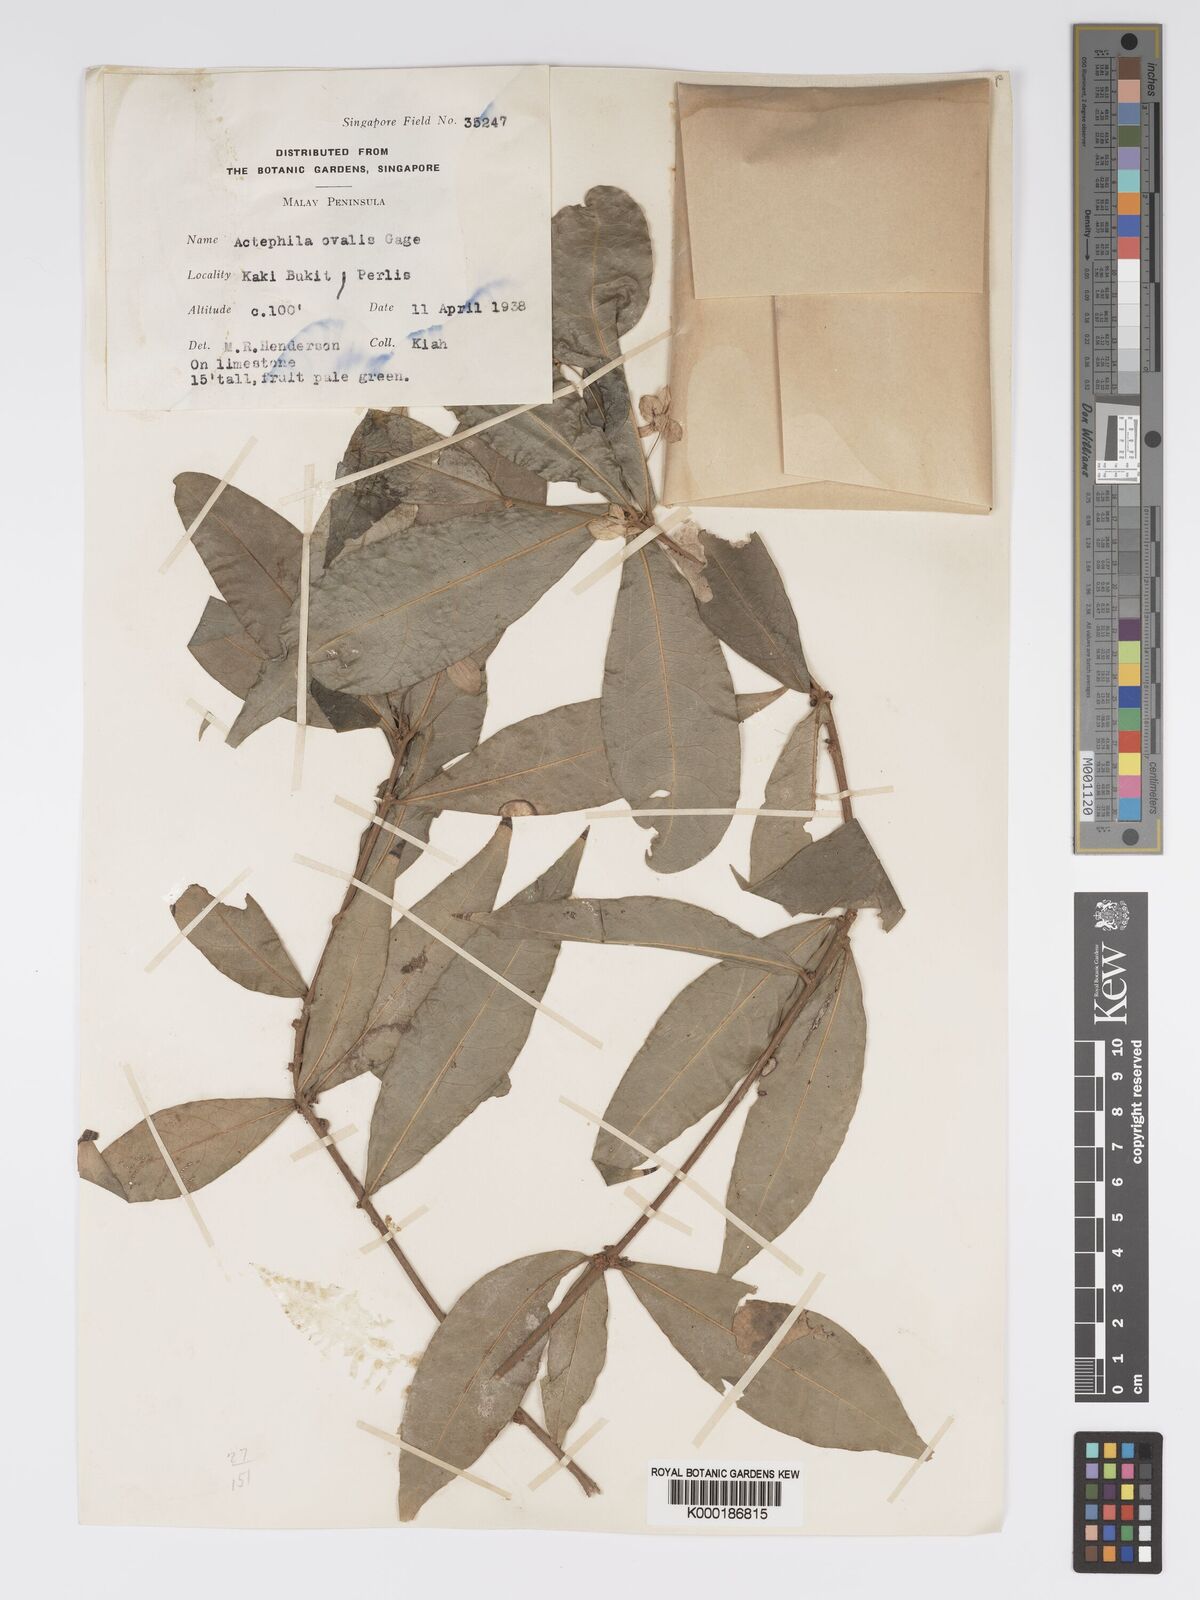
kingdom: Plantae
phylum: Tracheophyta
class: Magnoliopsida
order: Malpighiales
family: Phyllanthaceae
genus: Actephila
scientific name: Actephila ovalis
